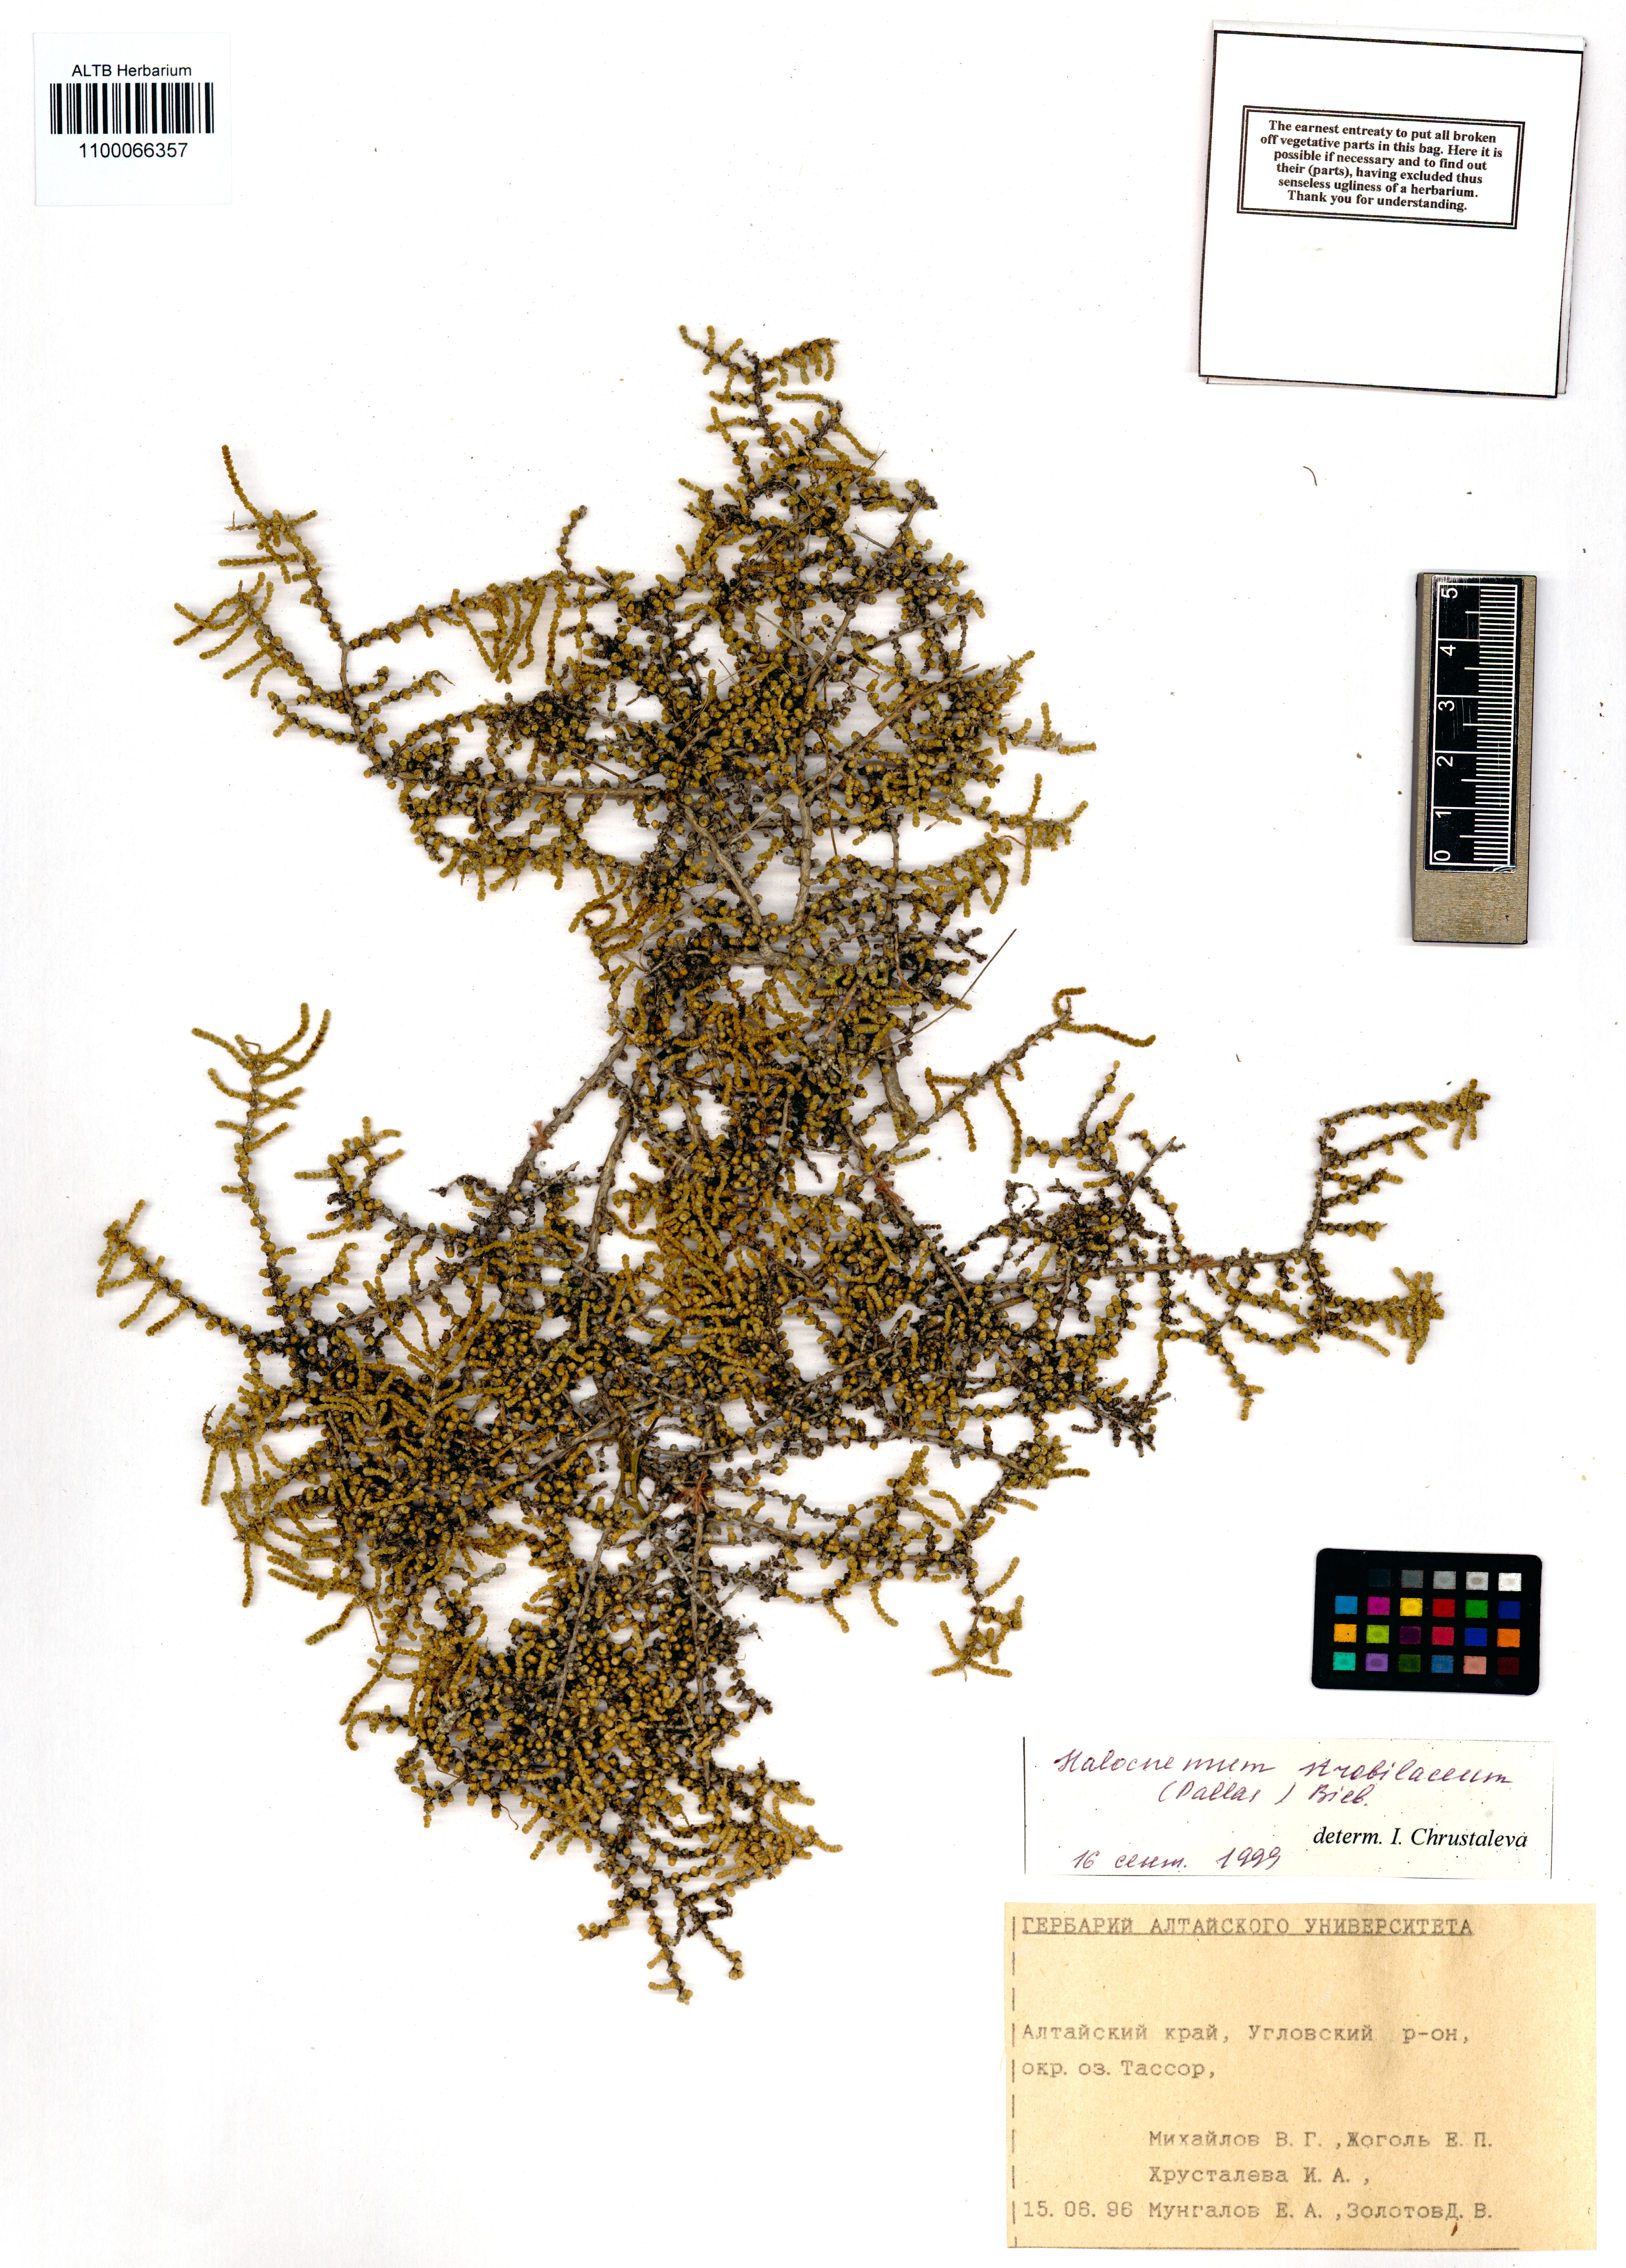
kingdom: Plantae
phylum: Tracheophyta
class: Magnoliopsida
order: Caryophyllales
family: Amaranthaceae
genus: Halocnemum
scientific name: Halocnemum strobilaceum
